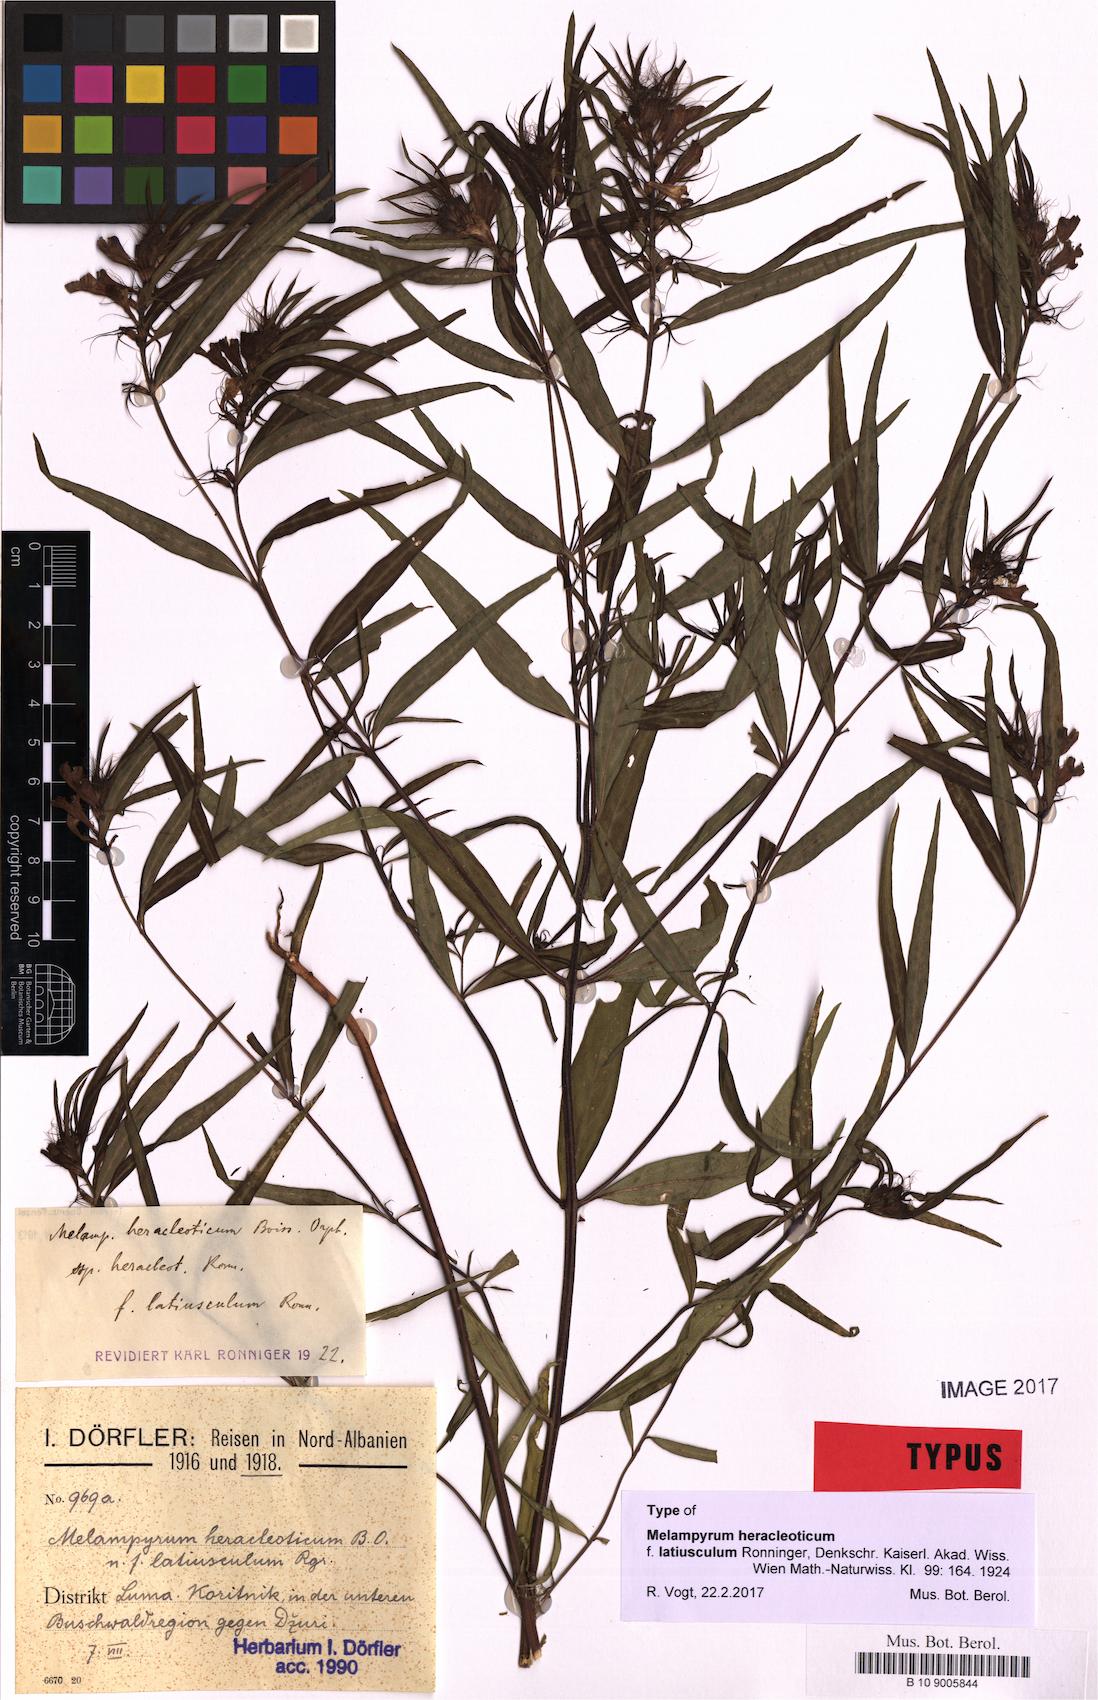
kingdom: Plantae
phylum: Tracheophyta
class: Magnoliopsida
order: Lamiales
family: Orobanchaceae
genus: Melampyrum
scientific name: Melampyrum heracleoticum
